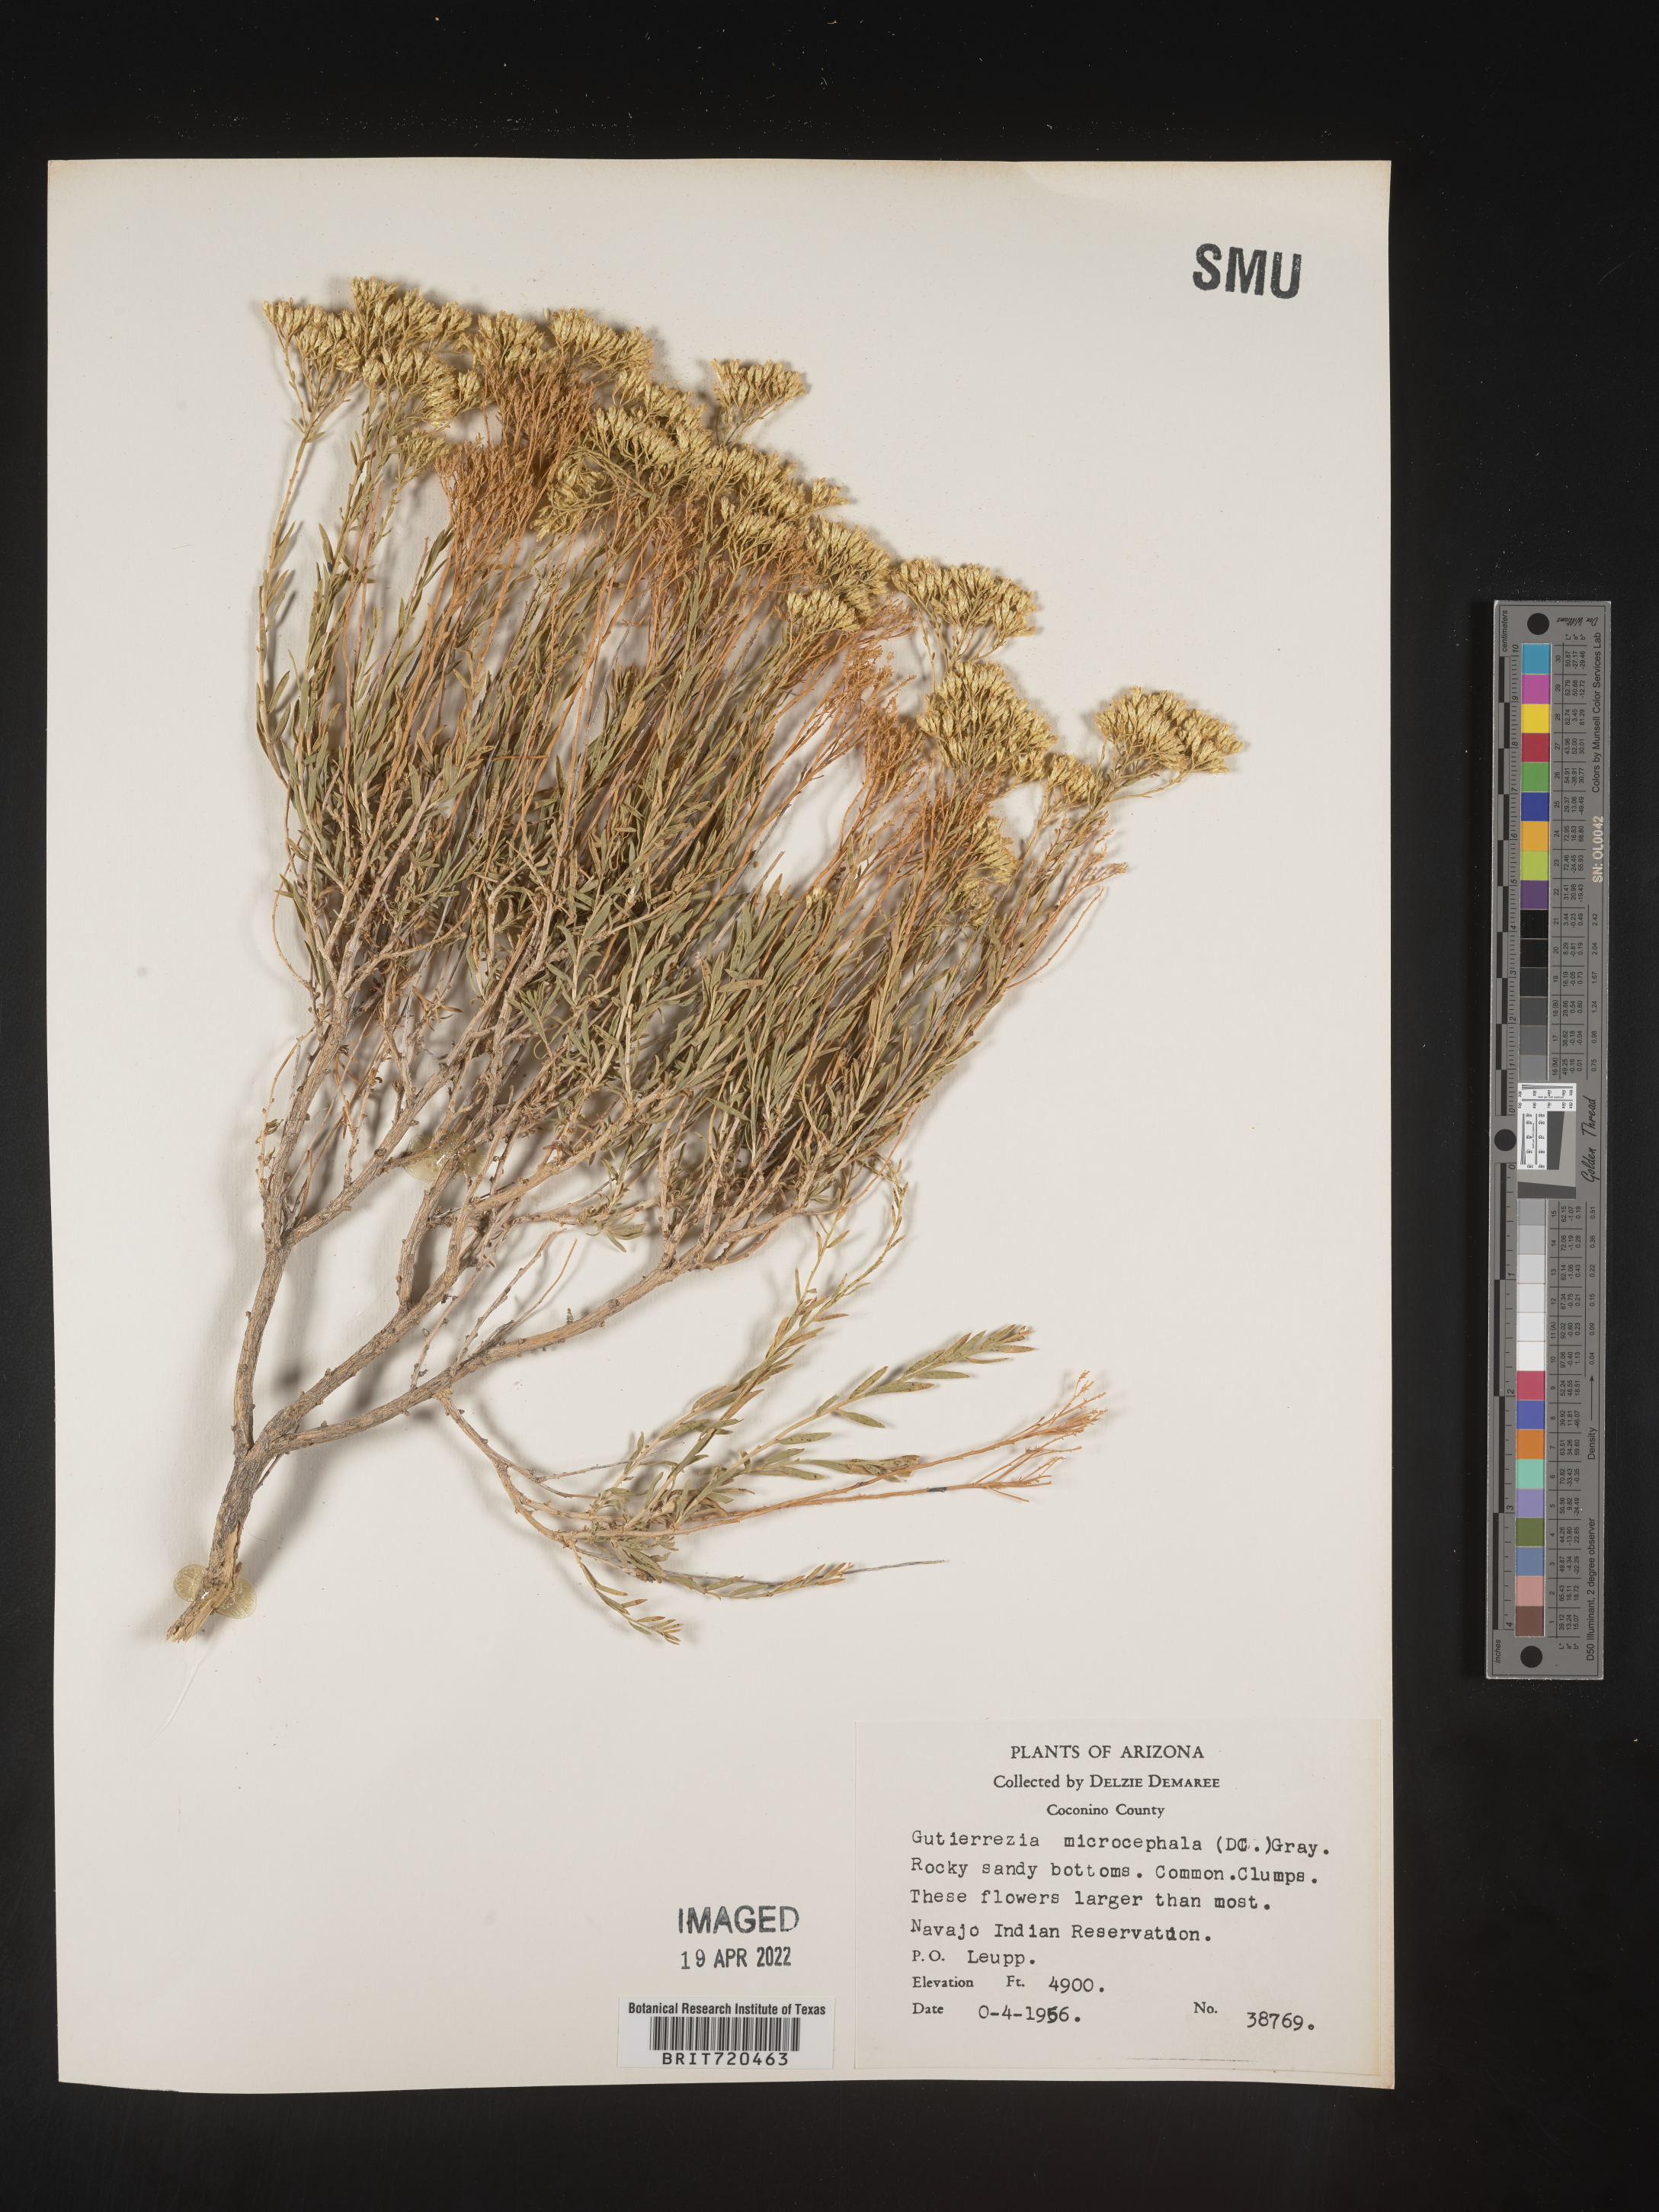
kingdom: Plantae
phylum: Tracheophyta
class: Magnoliopsida
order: Asterales
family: Asteraceae
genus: Gutierrezia
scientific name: Gutierrezia microcephala
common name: Thread snakeweed
